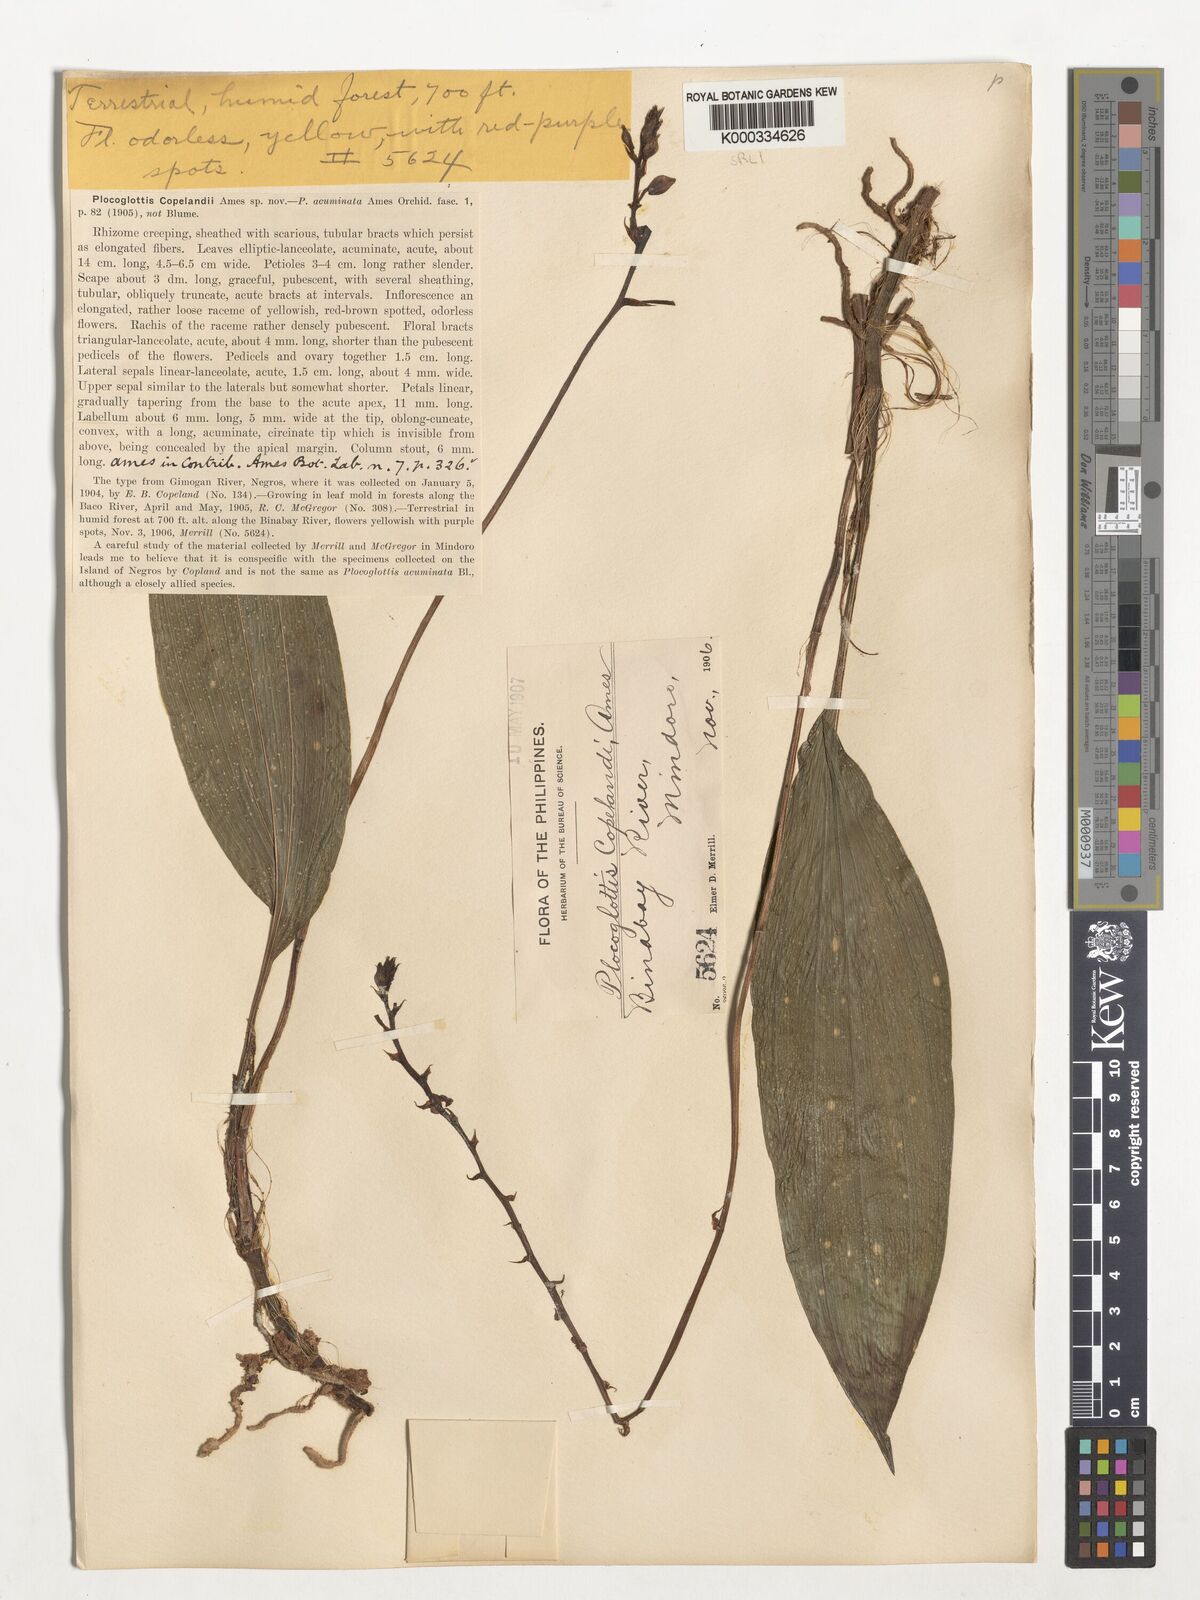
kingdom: Plantae
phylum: Tracheophyta
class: Liliopsida
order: Asparagales
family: Orchidaceae
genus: Plocoglottis
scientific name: Plocoglottis copelandii
